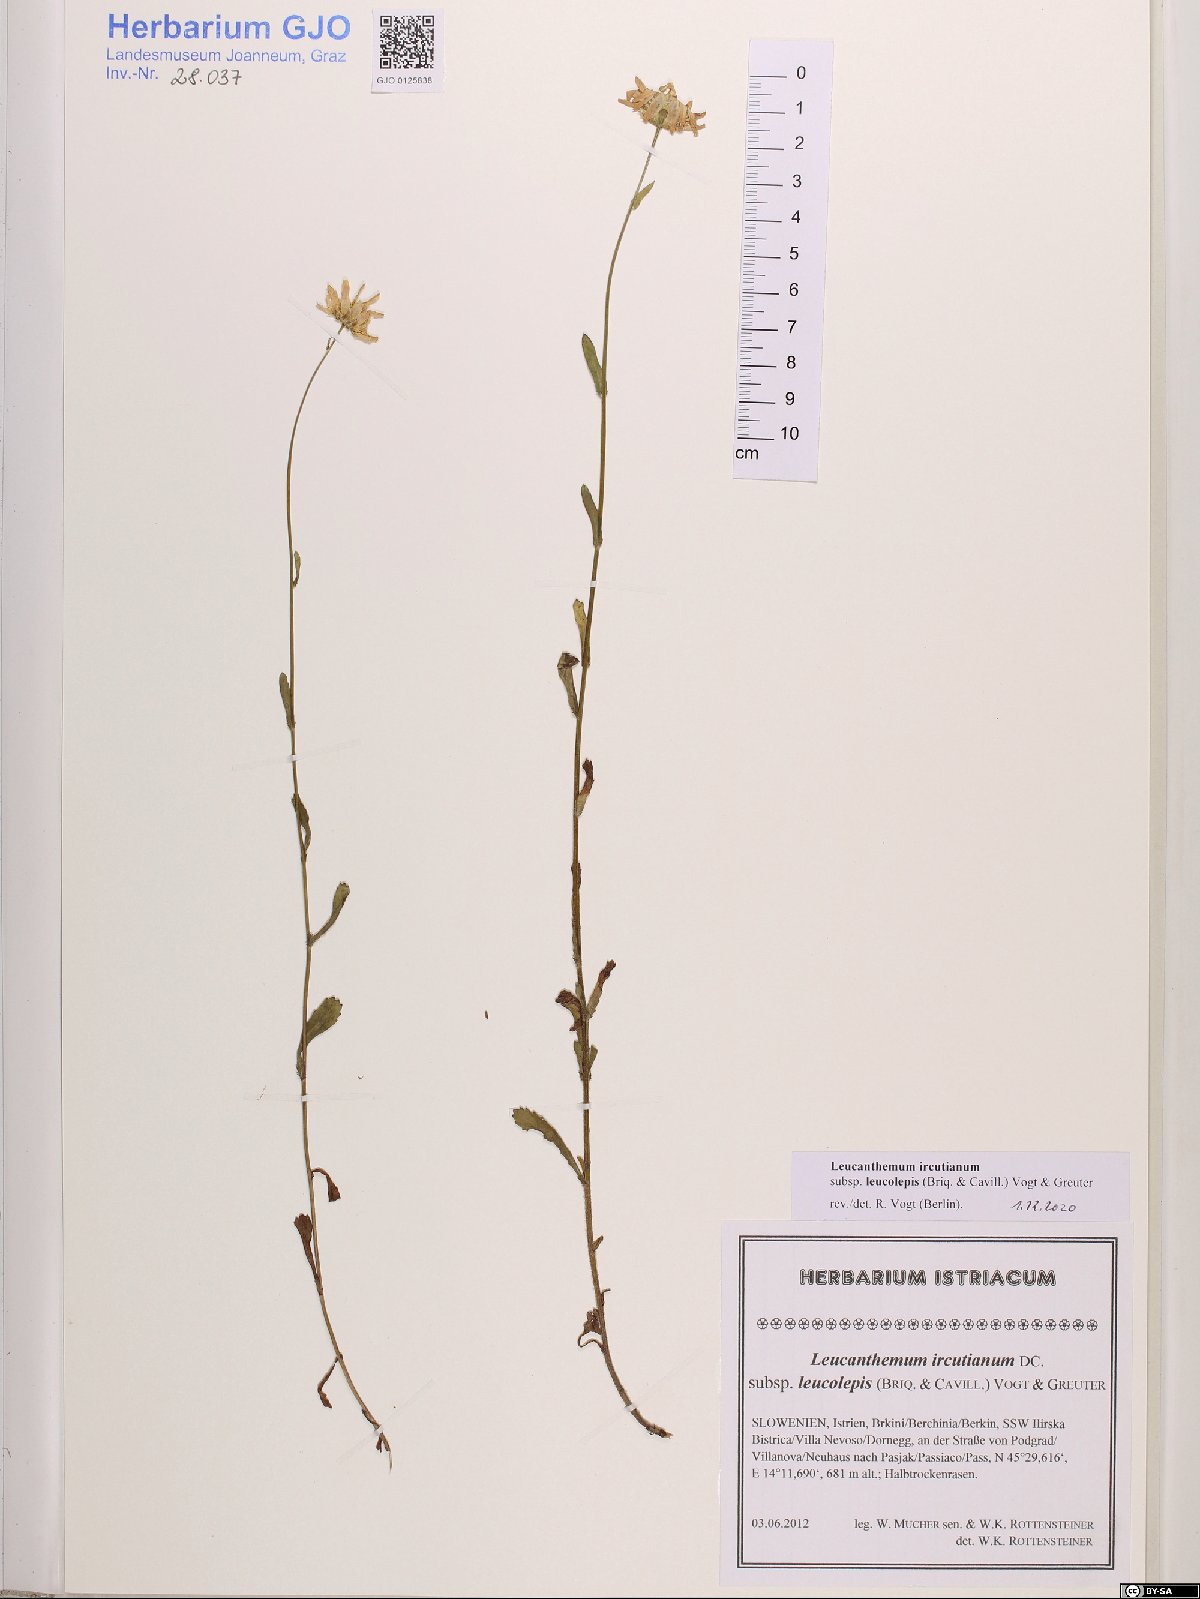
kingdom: Plantae
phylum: Tracheophyta
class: Magnoliopsida
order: Asterales
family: Asteraceae
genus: Leucanthemum
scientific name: Leucanthemum ircutianum
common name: Daisy
